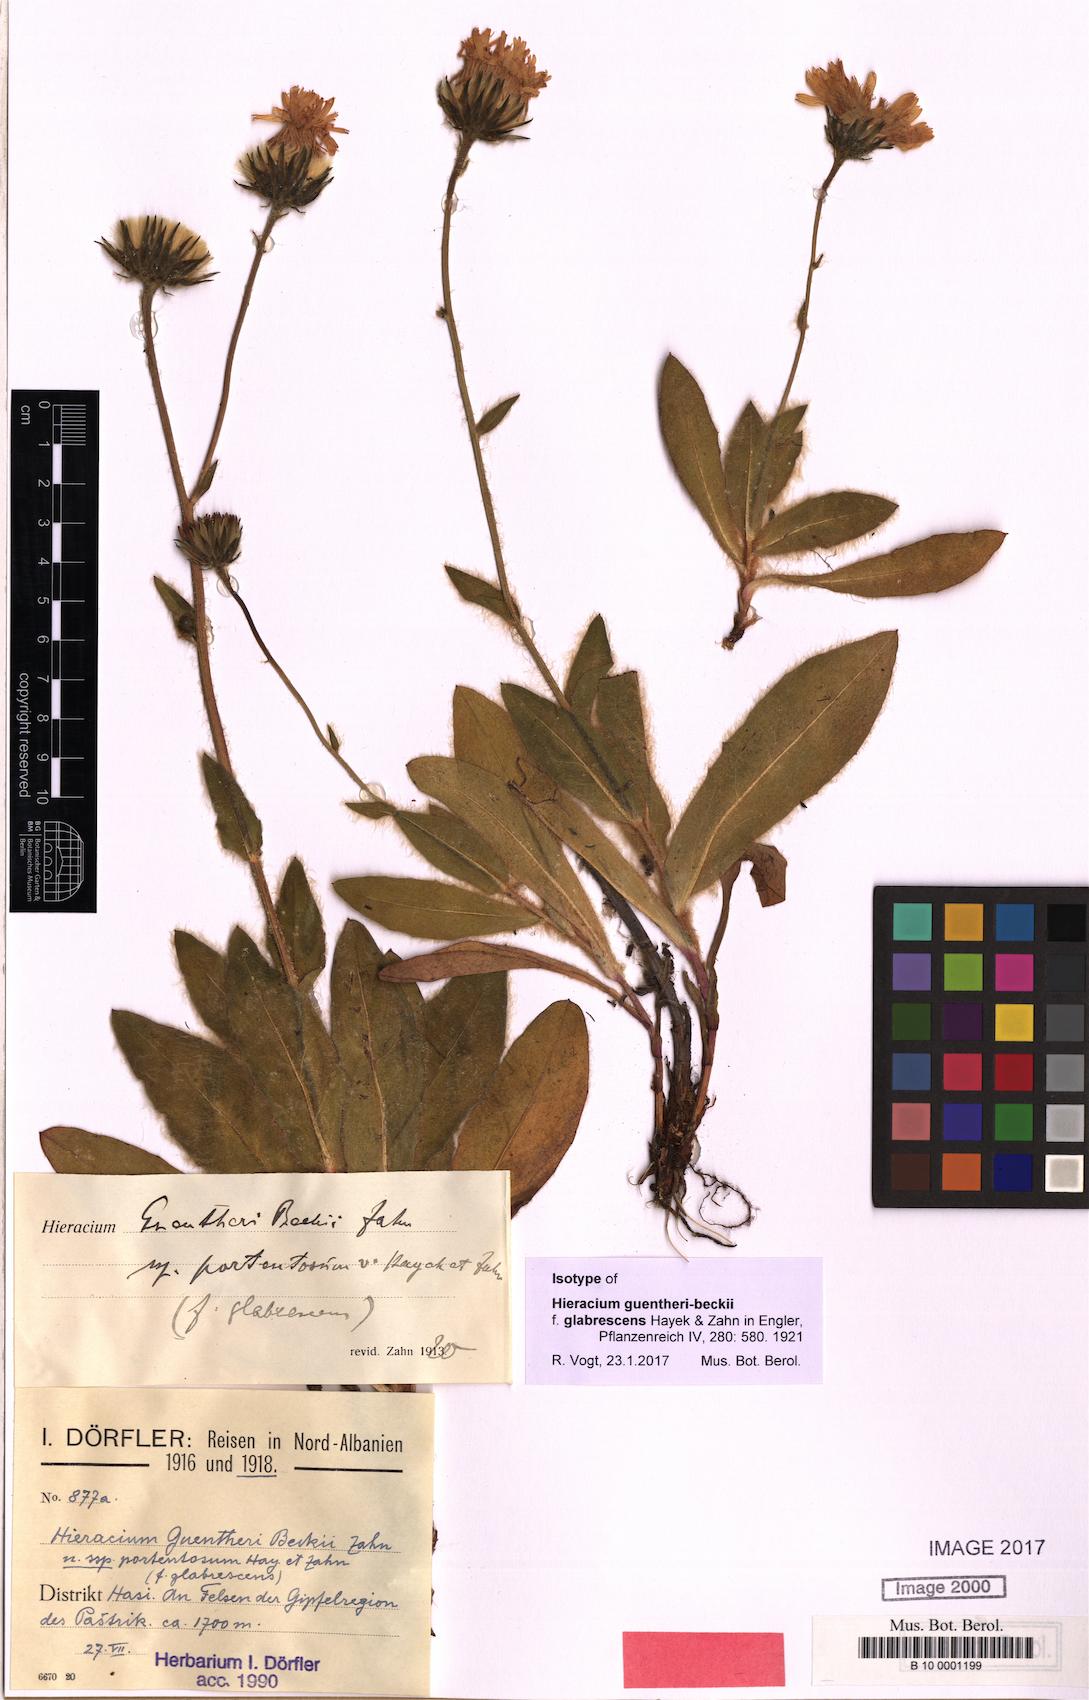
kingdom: Plantae
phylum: Tracheophyta
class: Magnoliopsida
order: Asterales
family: Asteraceae
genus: Hieracium
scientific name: Hieracium stirovacense
